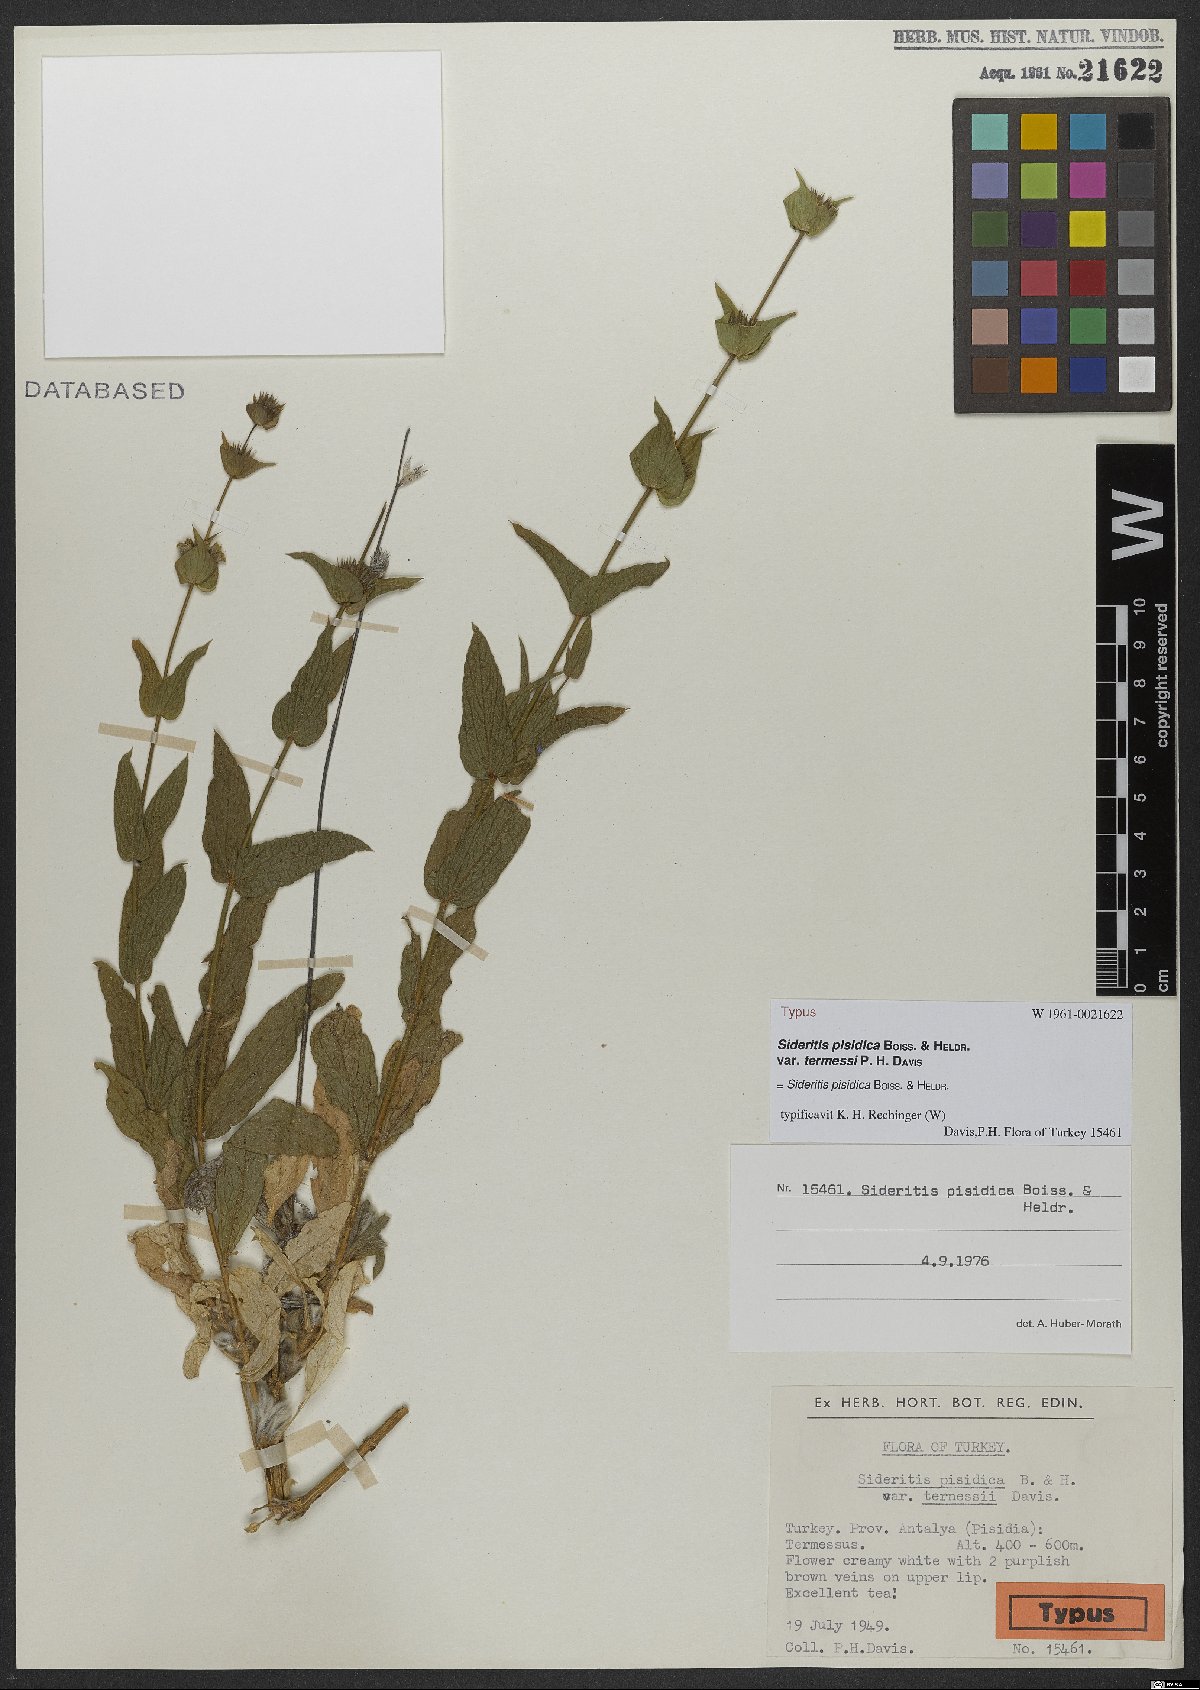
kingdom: Plantae
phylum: Tracheophyta
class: Magnoliopsida
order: Lamiales
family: Lamiaceae
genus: Sideritis
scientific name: Sideritis pisidica
